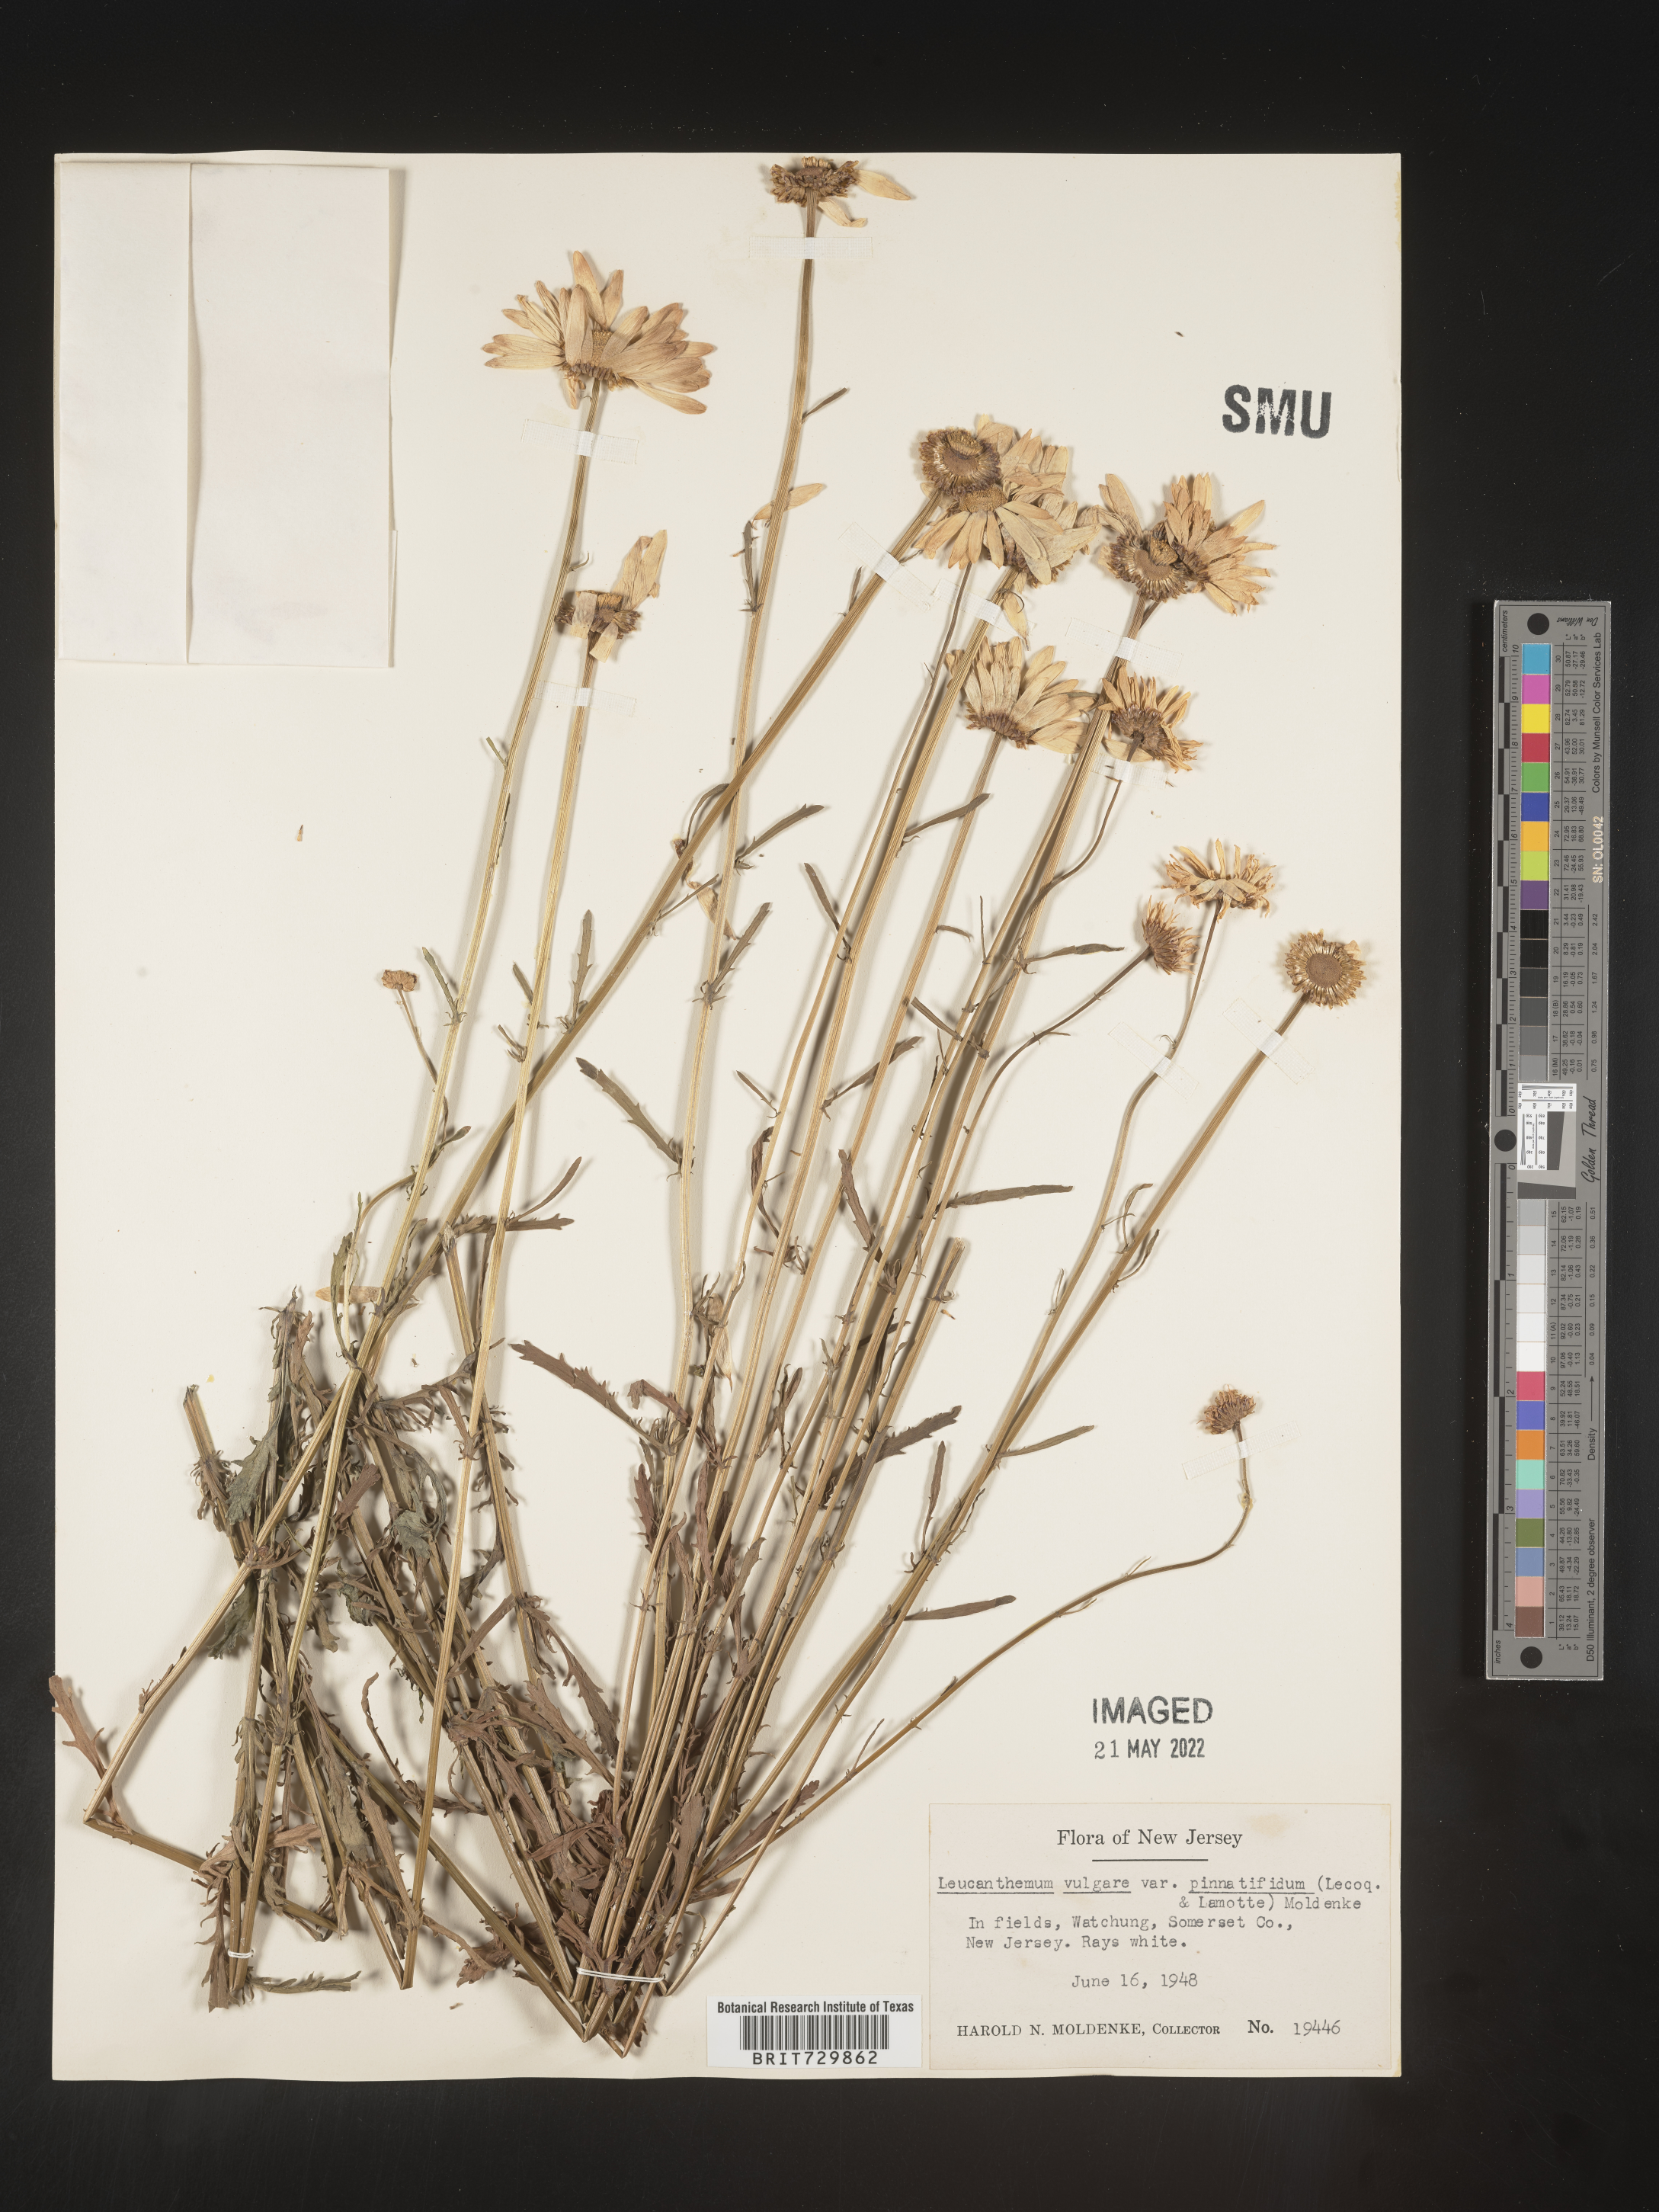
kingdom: Plantae
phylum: Tracheophyta
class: Magnoliopsida
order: Asterales
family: Asteraceae
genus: Leucanthemum
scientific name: Leucanthemum vulgare
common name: Oxeye daisy
